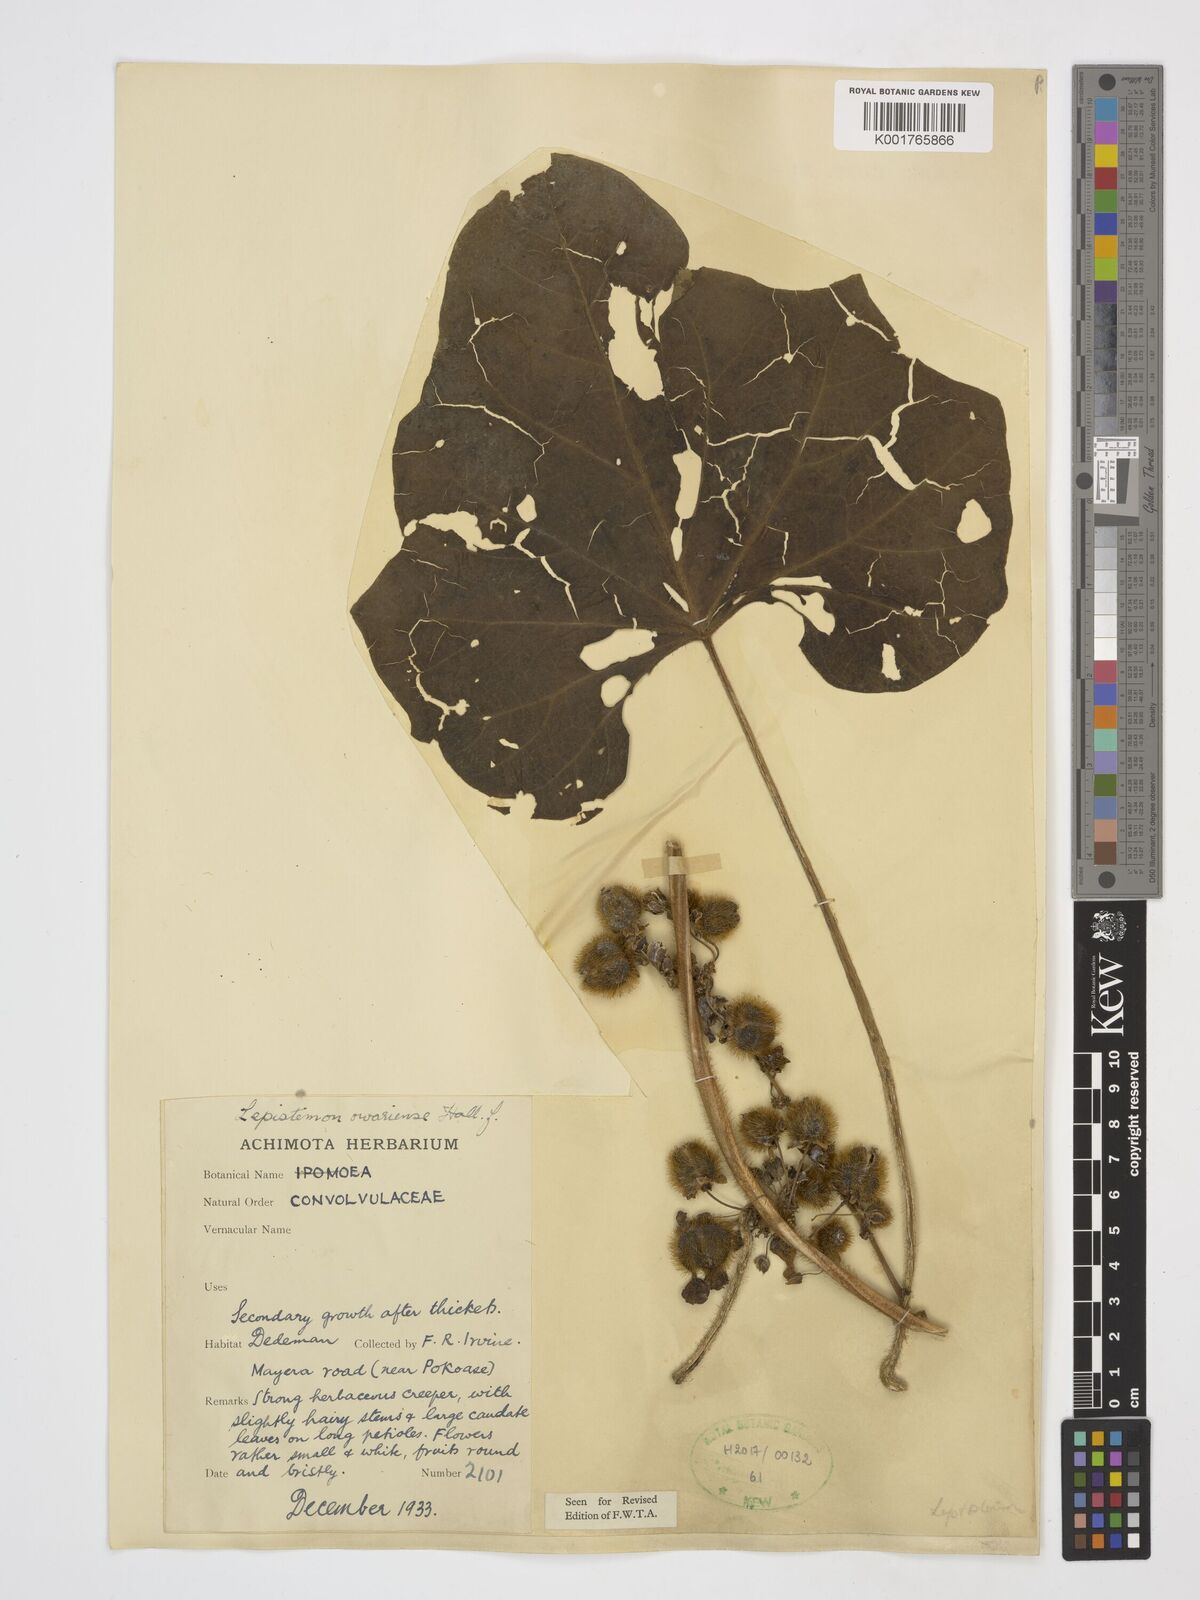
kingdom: Plantae
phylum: Tracheophyta
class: Magnoliopsida
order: Solanales
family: Convolvulaceae
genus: Lepistemon
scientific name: Lepistemon owariensis
